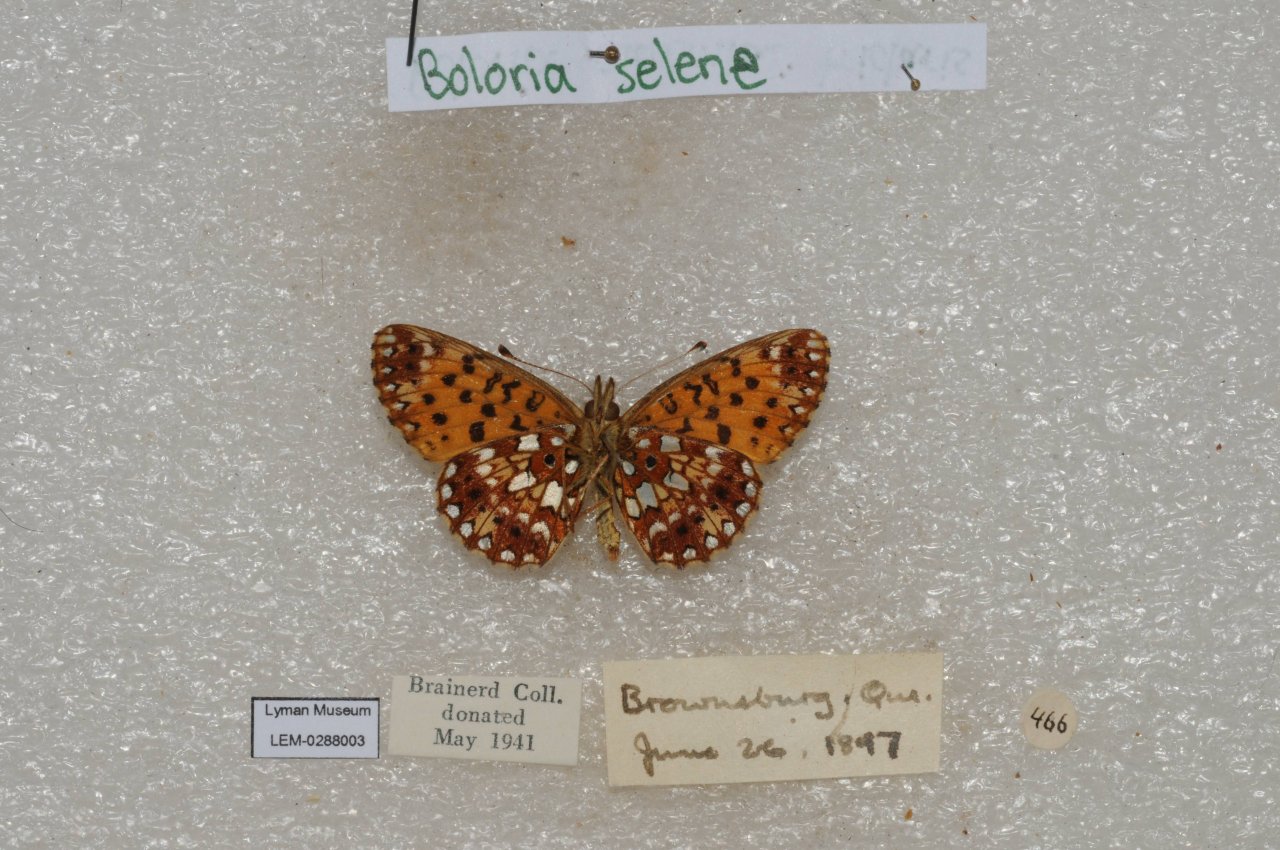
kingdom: Animalia
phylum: Arthropoda
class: Insecta
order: Lepidoptera
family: Nymphalidae
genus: Boloria
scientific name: Boloria selene
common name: Silver-bordered Fritillary
